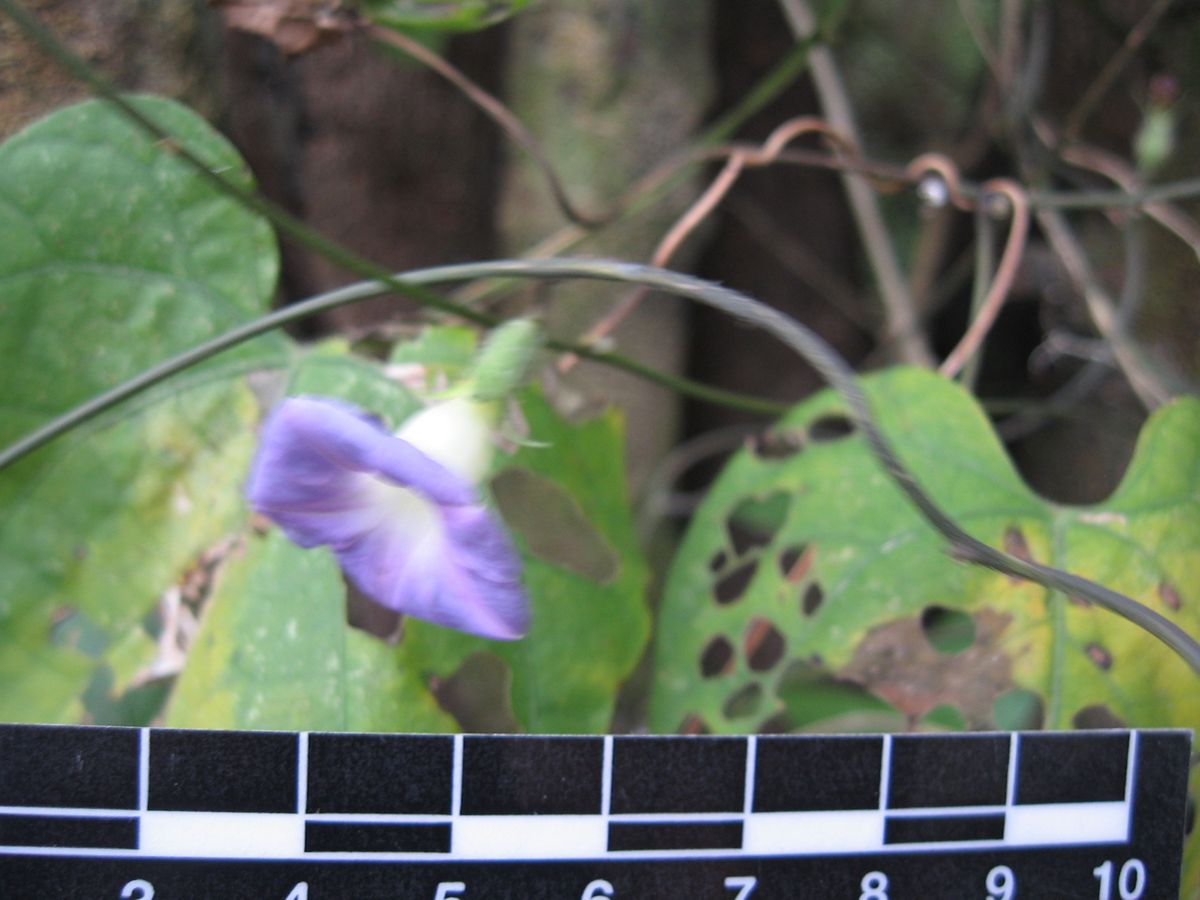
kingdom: Plantae
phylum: Tracheophyta
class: Magnoliopsida
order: Solanales
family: Convolvulaceae
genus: Ipomoea
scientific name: Ipomoea
